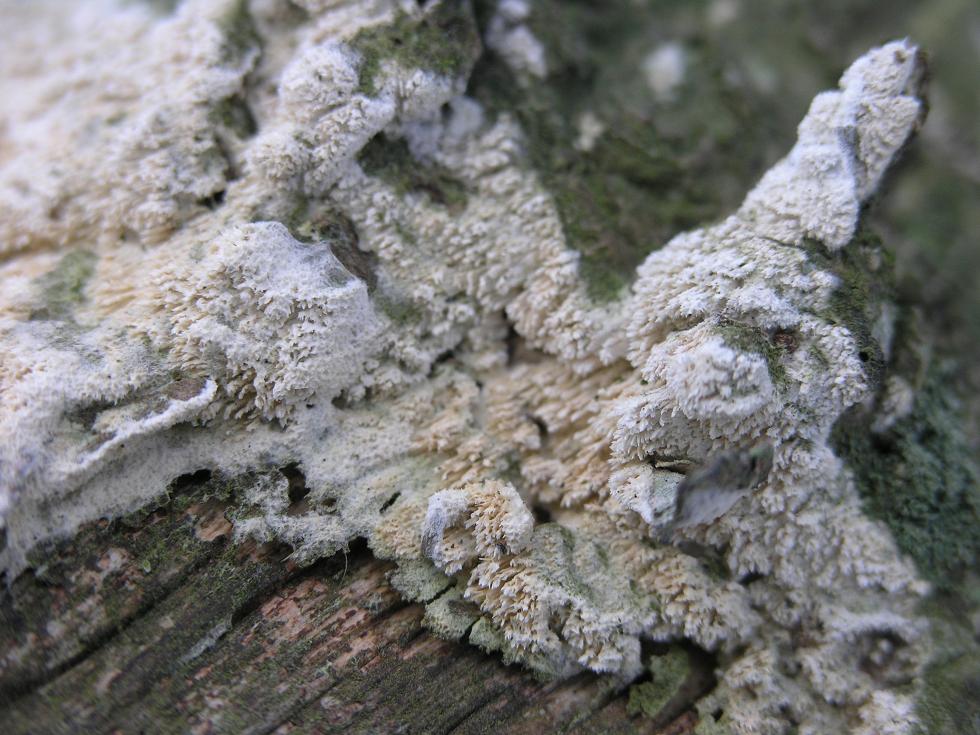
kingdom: Fungi
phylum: Basidiomycota
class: Agaricomycetes
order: Hymenochaetales
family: Schizoporaceae
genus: Schizopora
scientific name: Schizopora paradoxa
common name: hvid tandsvamp
